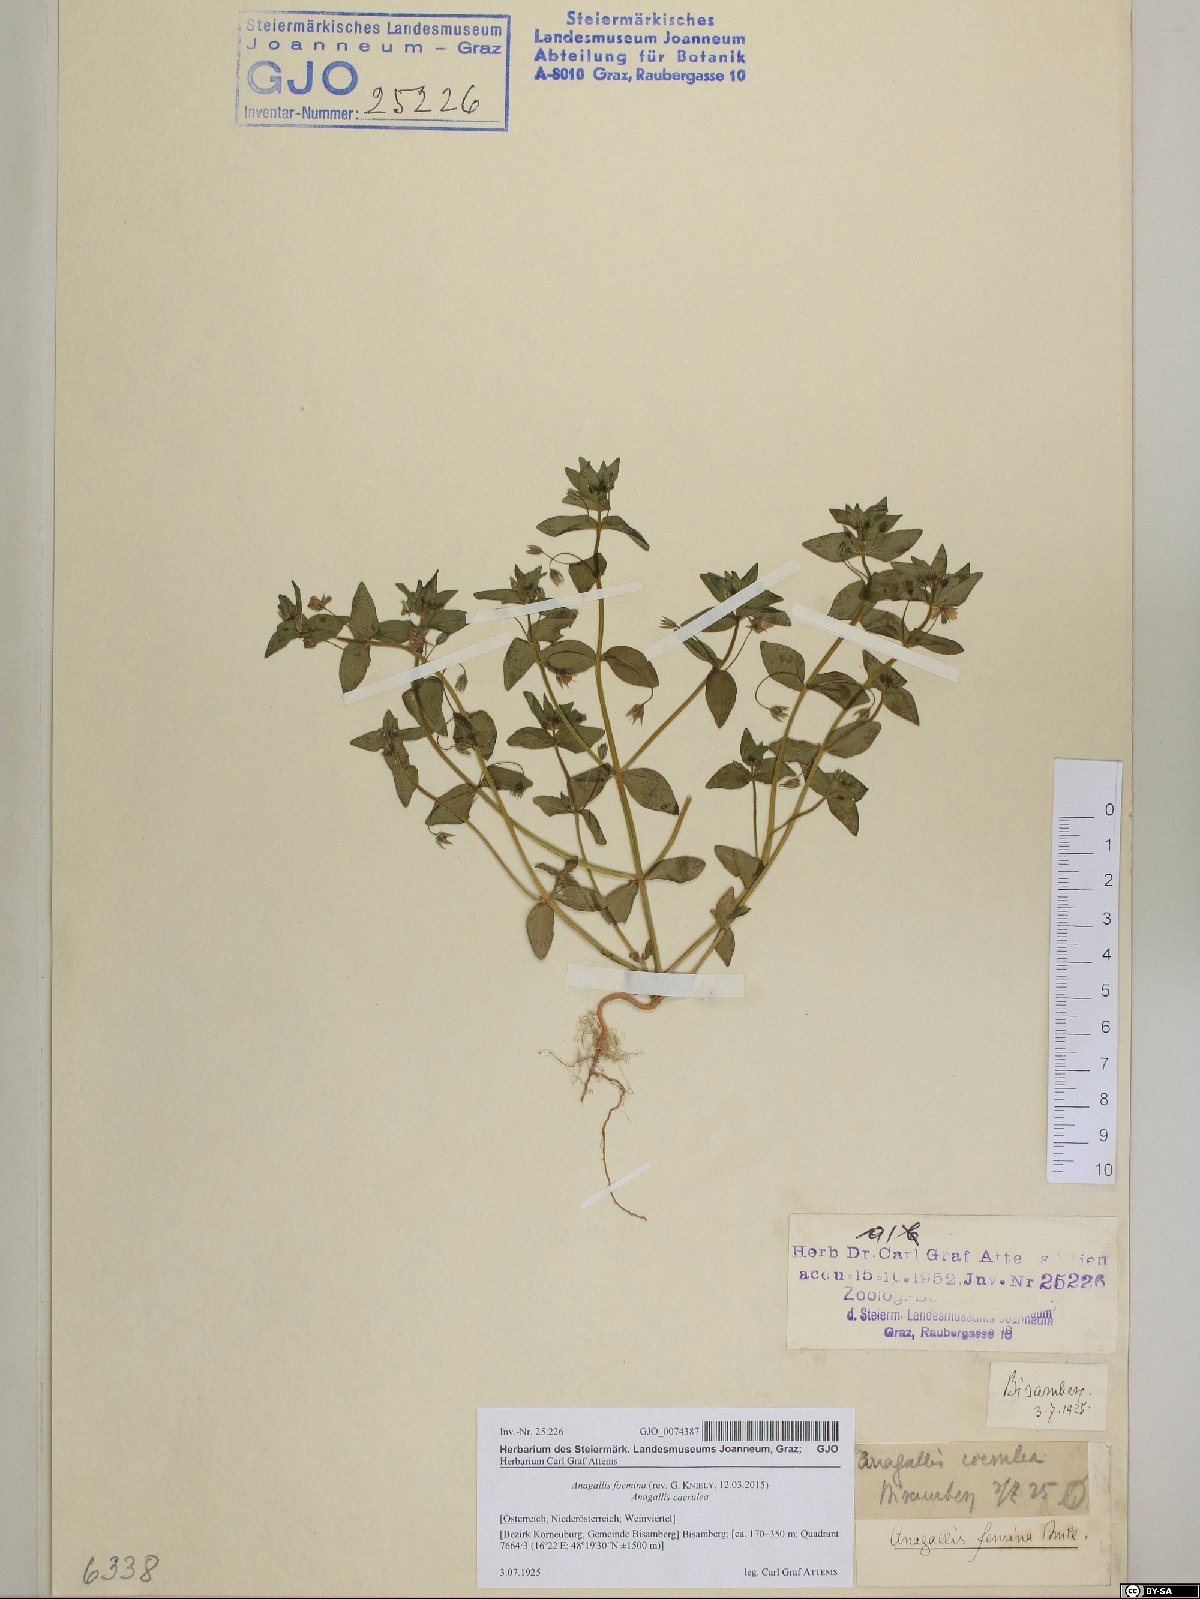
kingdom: Plantae
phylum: Tracheophyta
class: Magnoliopsida
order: Ericales
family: Primulaceae
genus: Lysimachia
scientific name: Lysimachia foemina
